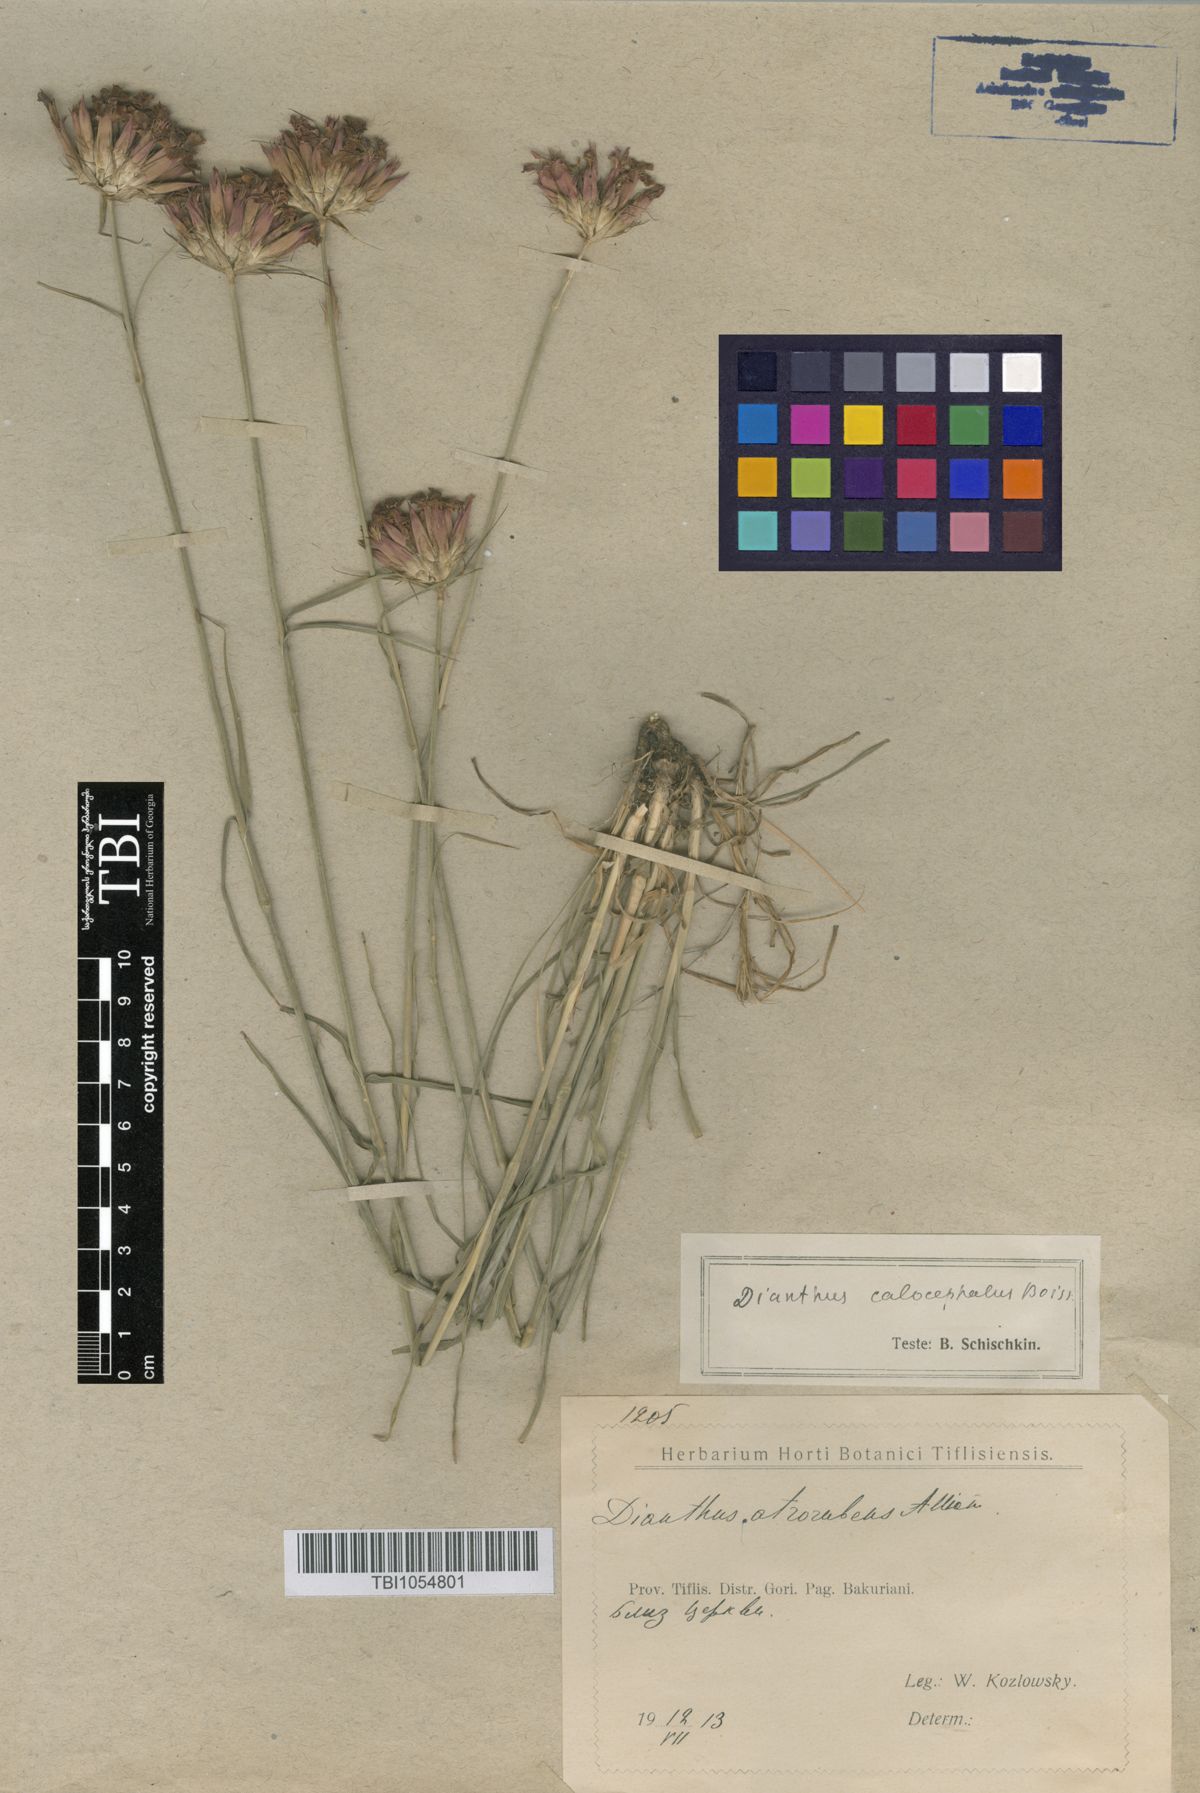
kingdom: Plantae
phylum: Tracheophyta
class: Magnoliopsida
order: Caryophyllales
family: Caryophyllaceae
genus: Dianthus
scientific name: Dianthus cruentus
